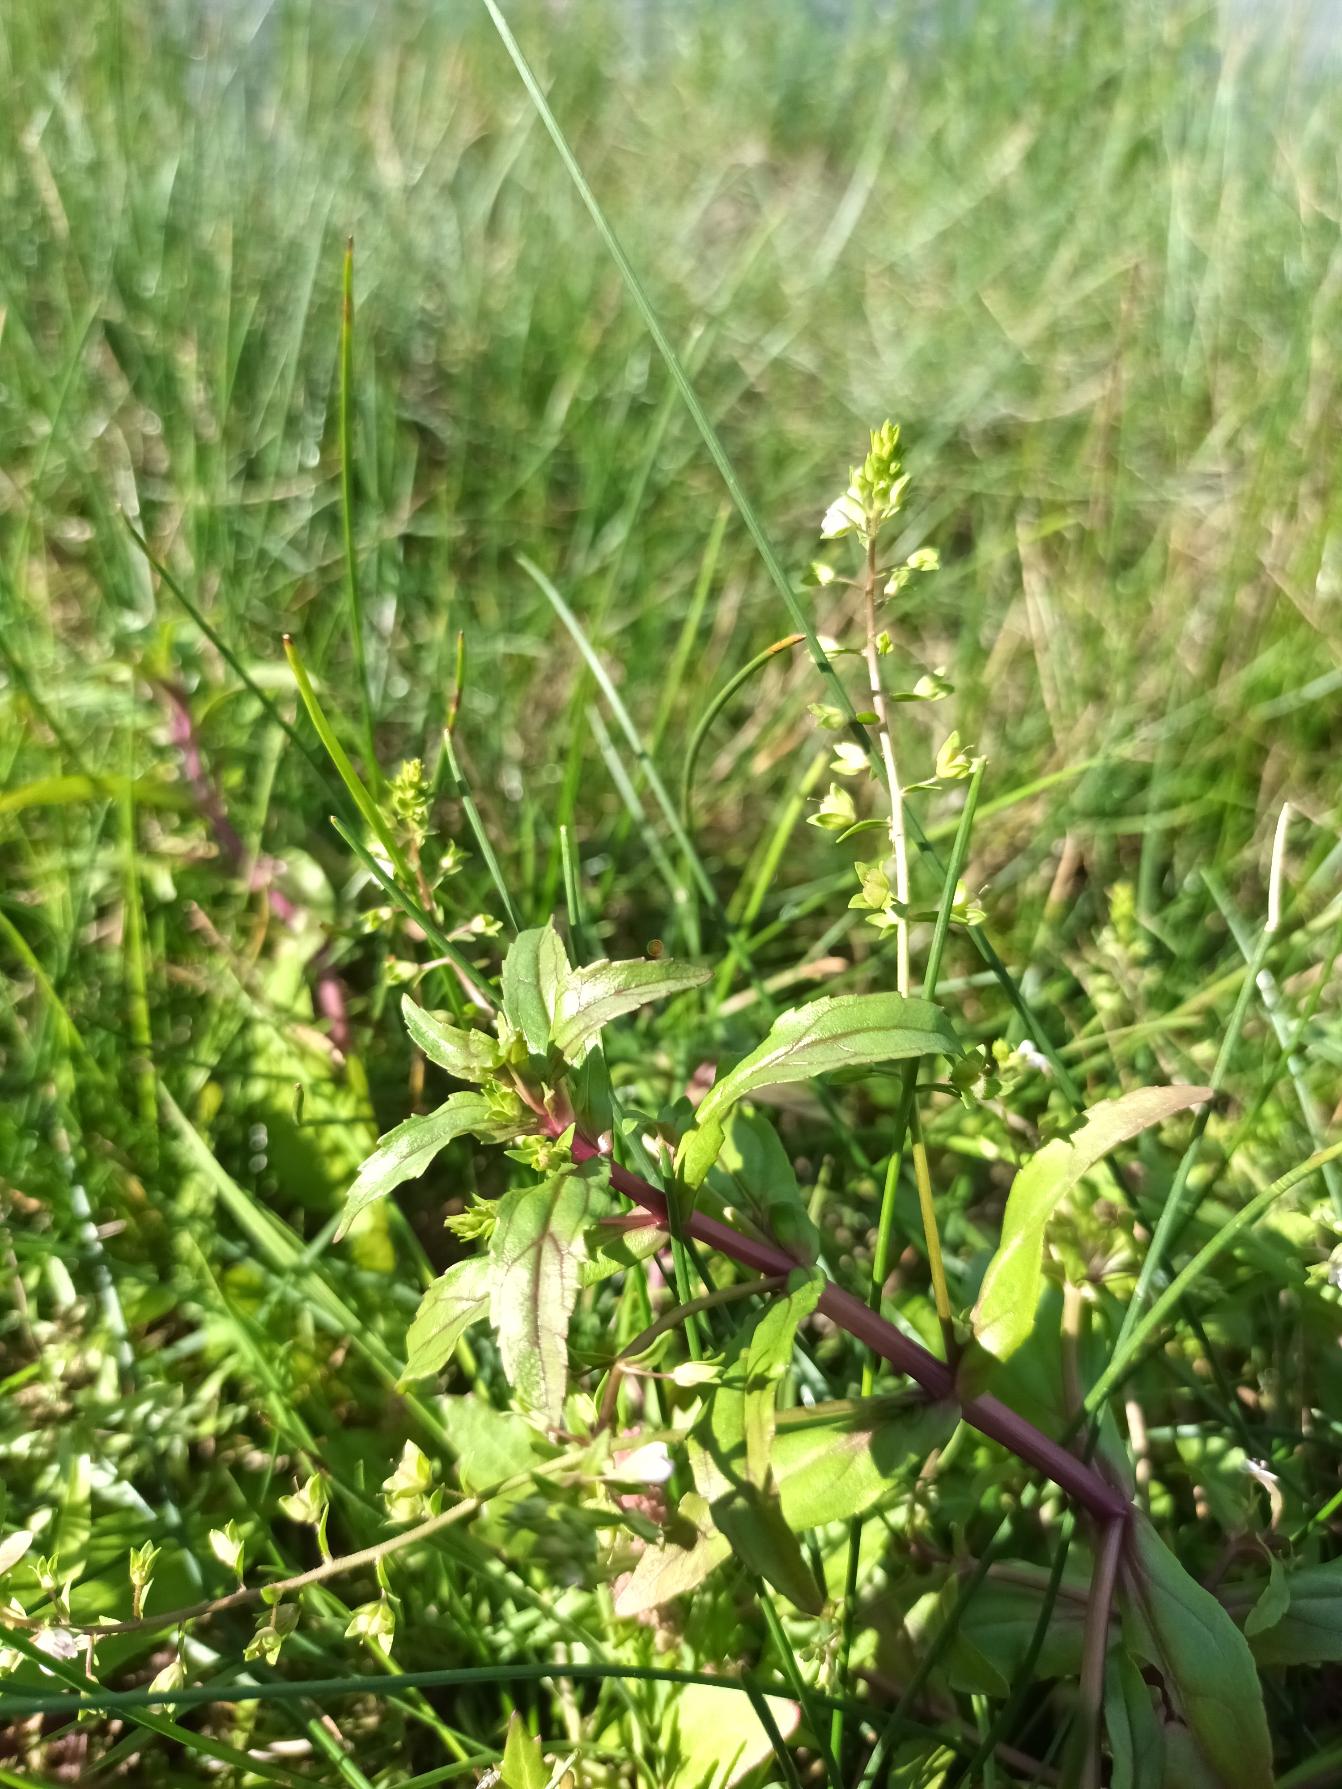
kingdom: Plantae
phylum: Tracheophyta
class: Magnoliopsida
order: Lamiales
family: Plantaginaceae
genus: Veronica
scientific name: Veronica catenata
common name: Vand-ærenpris
